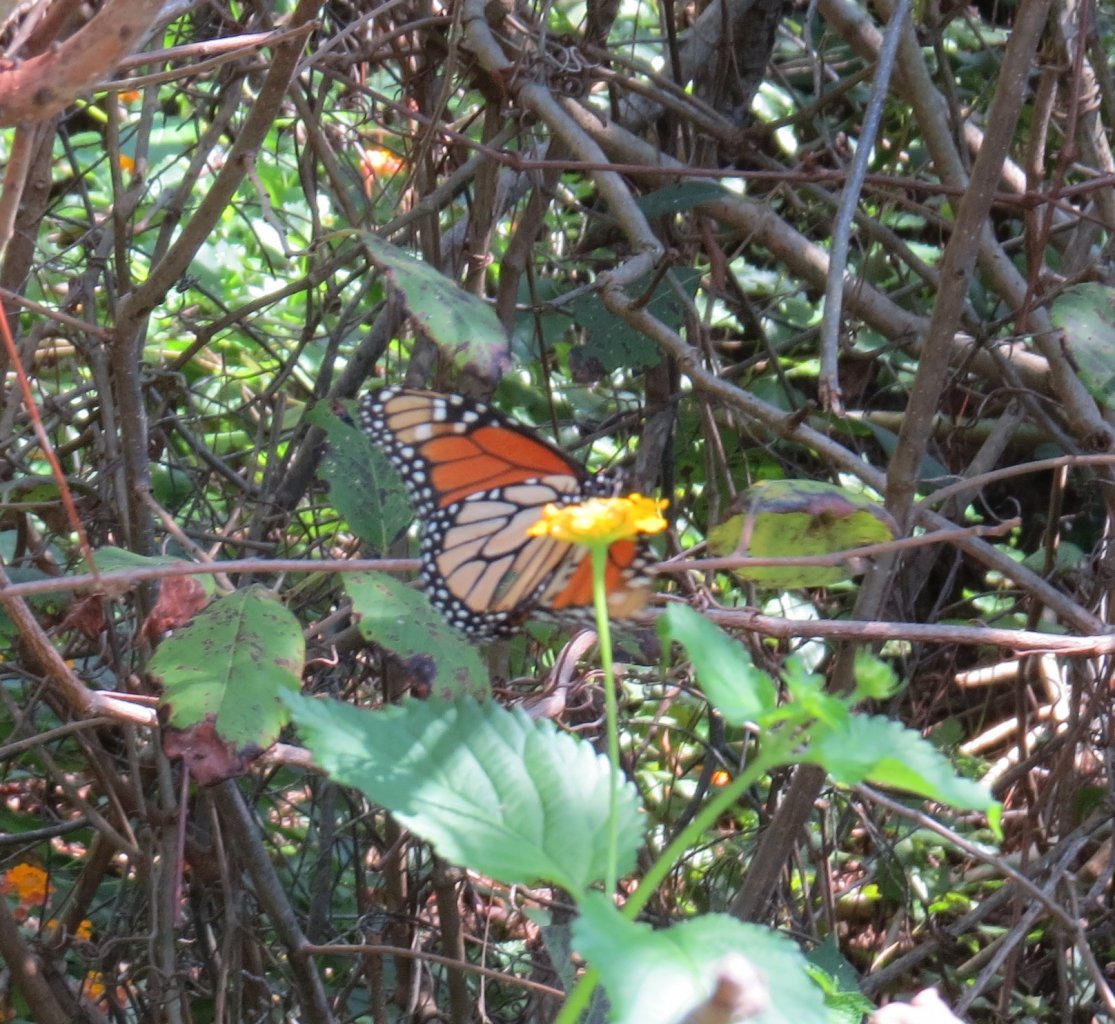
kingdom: Animalia
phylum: Arthropoda
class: Insecta
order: Lepidoptera
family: Nymphalidae
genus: Danaus
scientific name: Danaus plexippus
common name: Monarch
